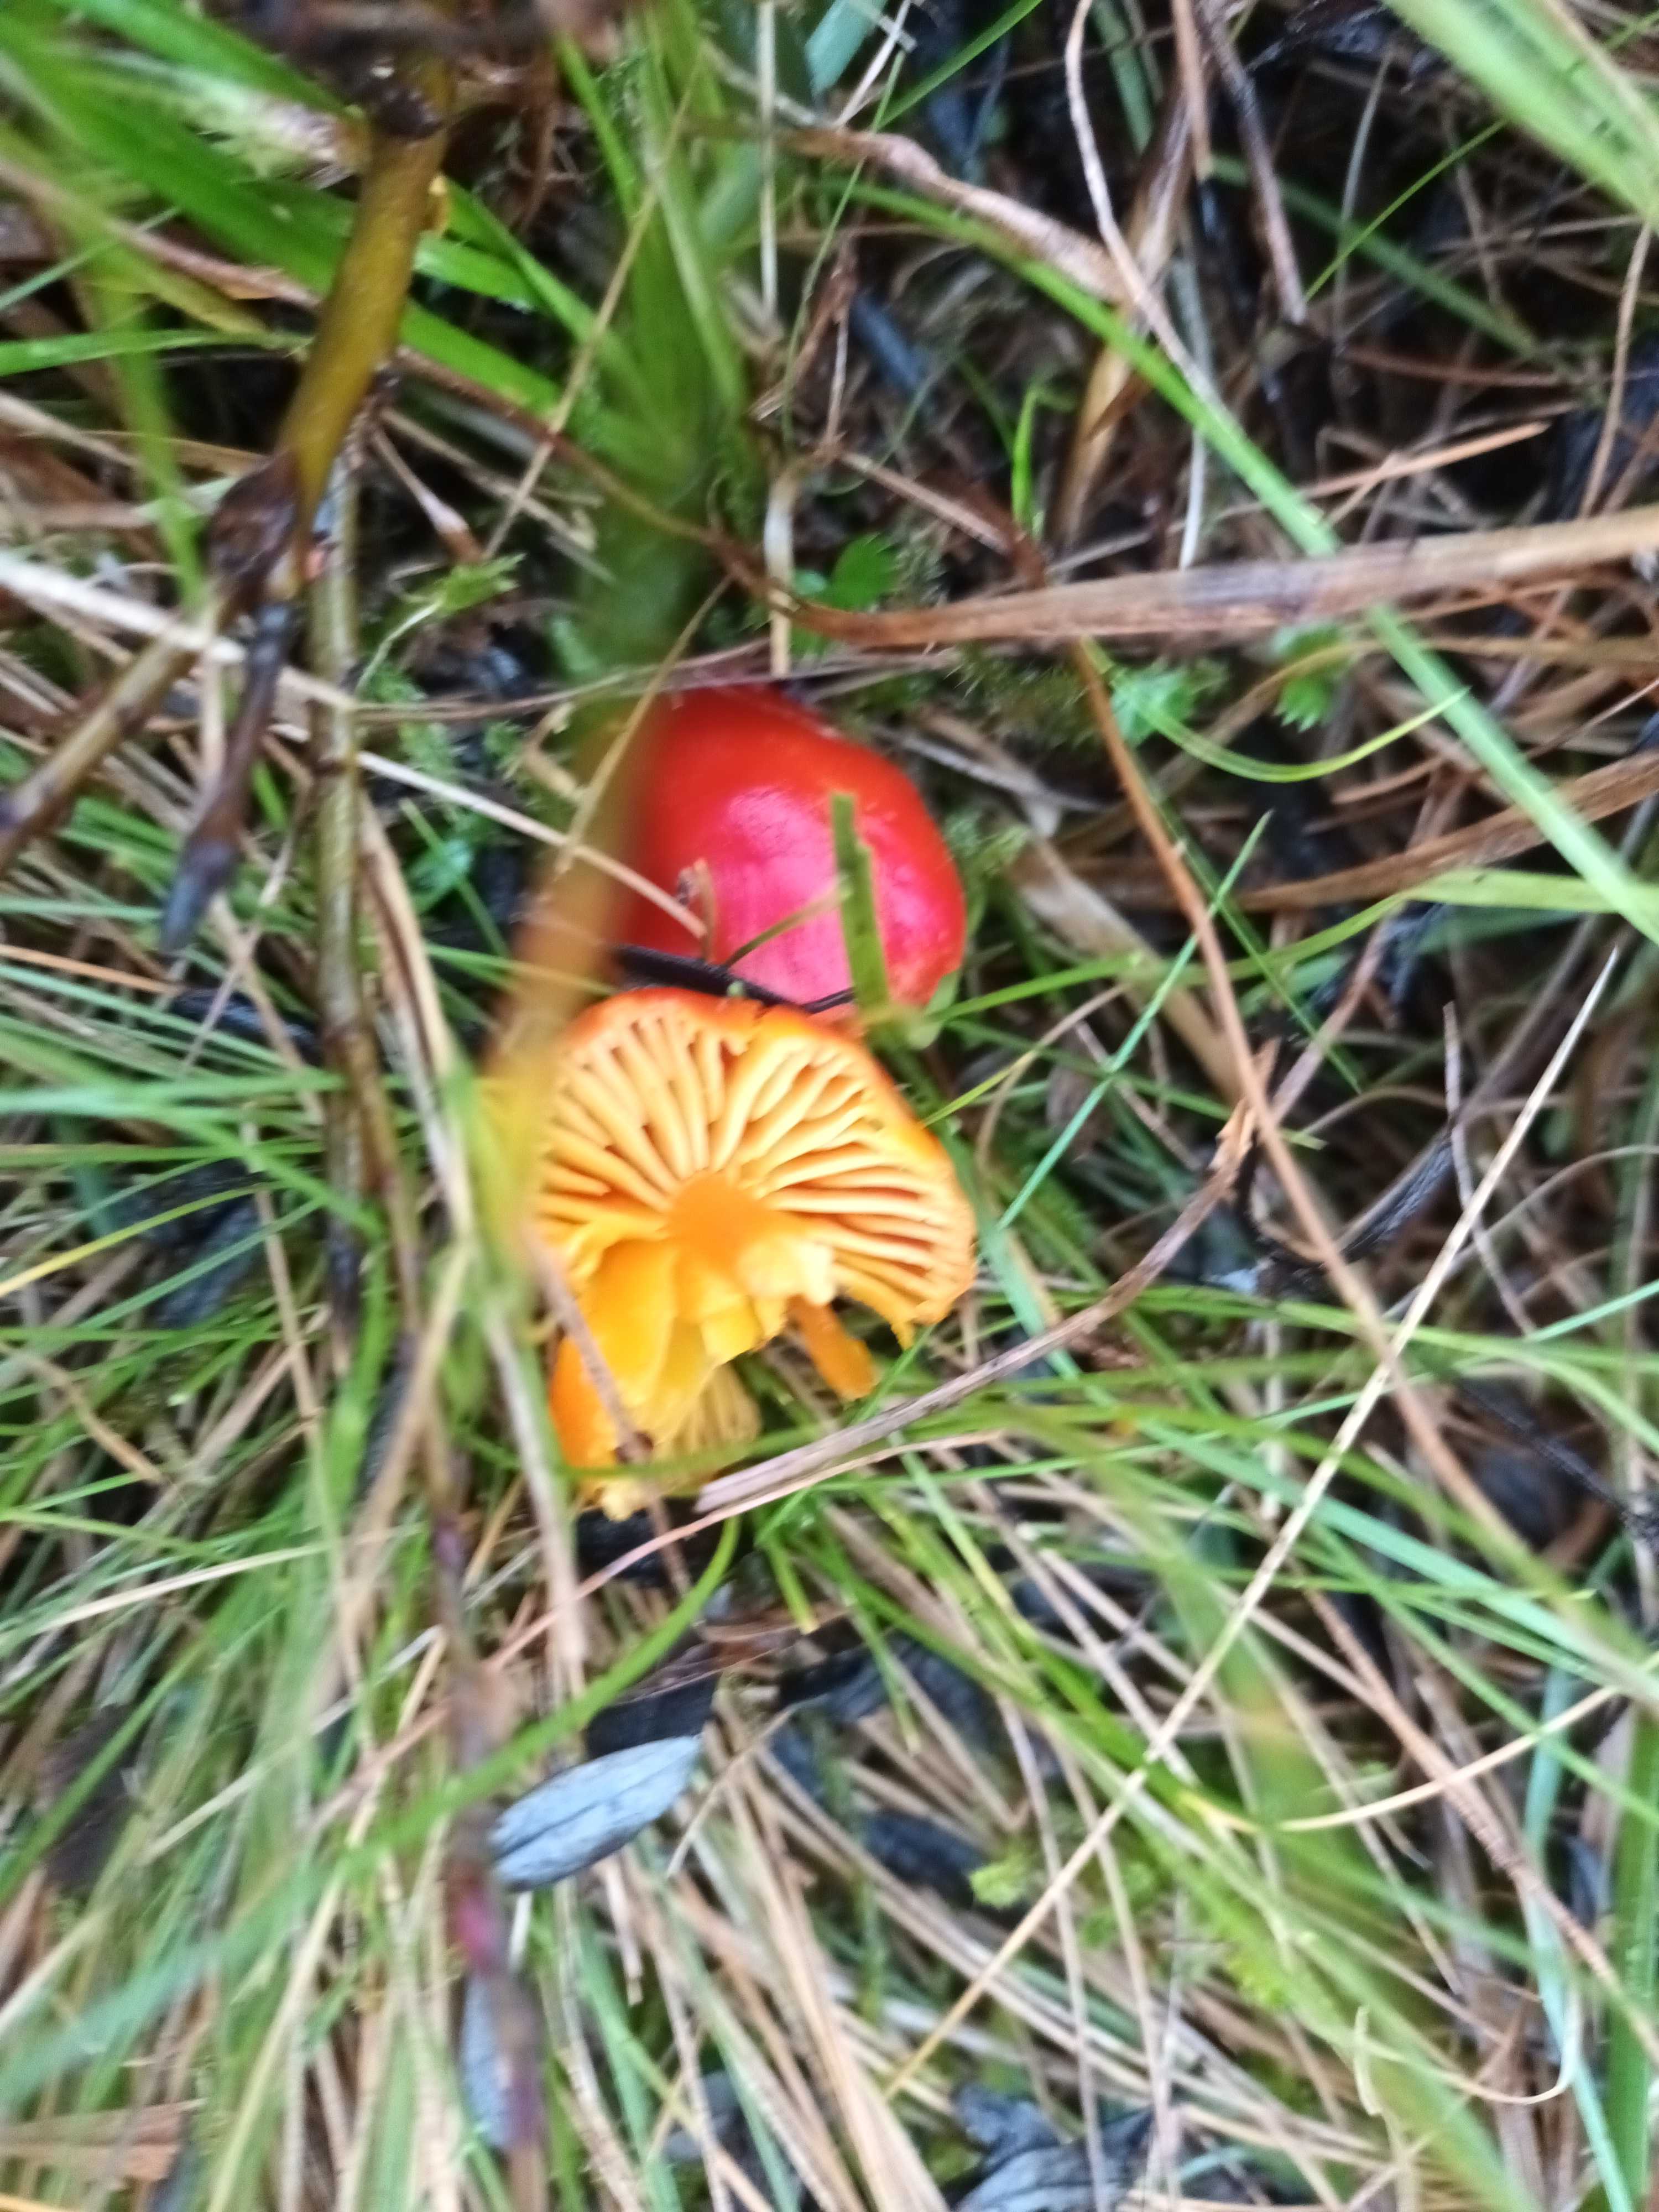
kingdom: Fungi
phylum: Basidiomycota
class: Agaricomycetes
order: Agaricales
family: Hygrophoraceae
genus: Hygrocybe
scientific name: Hygrocybe
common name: vokshat
